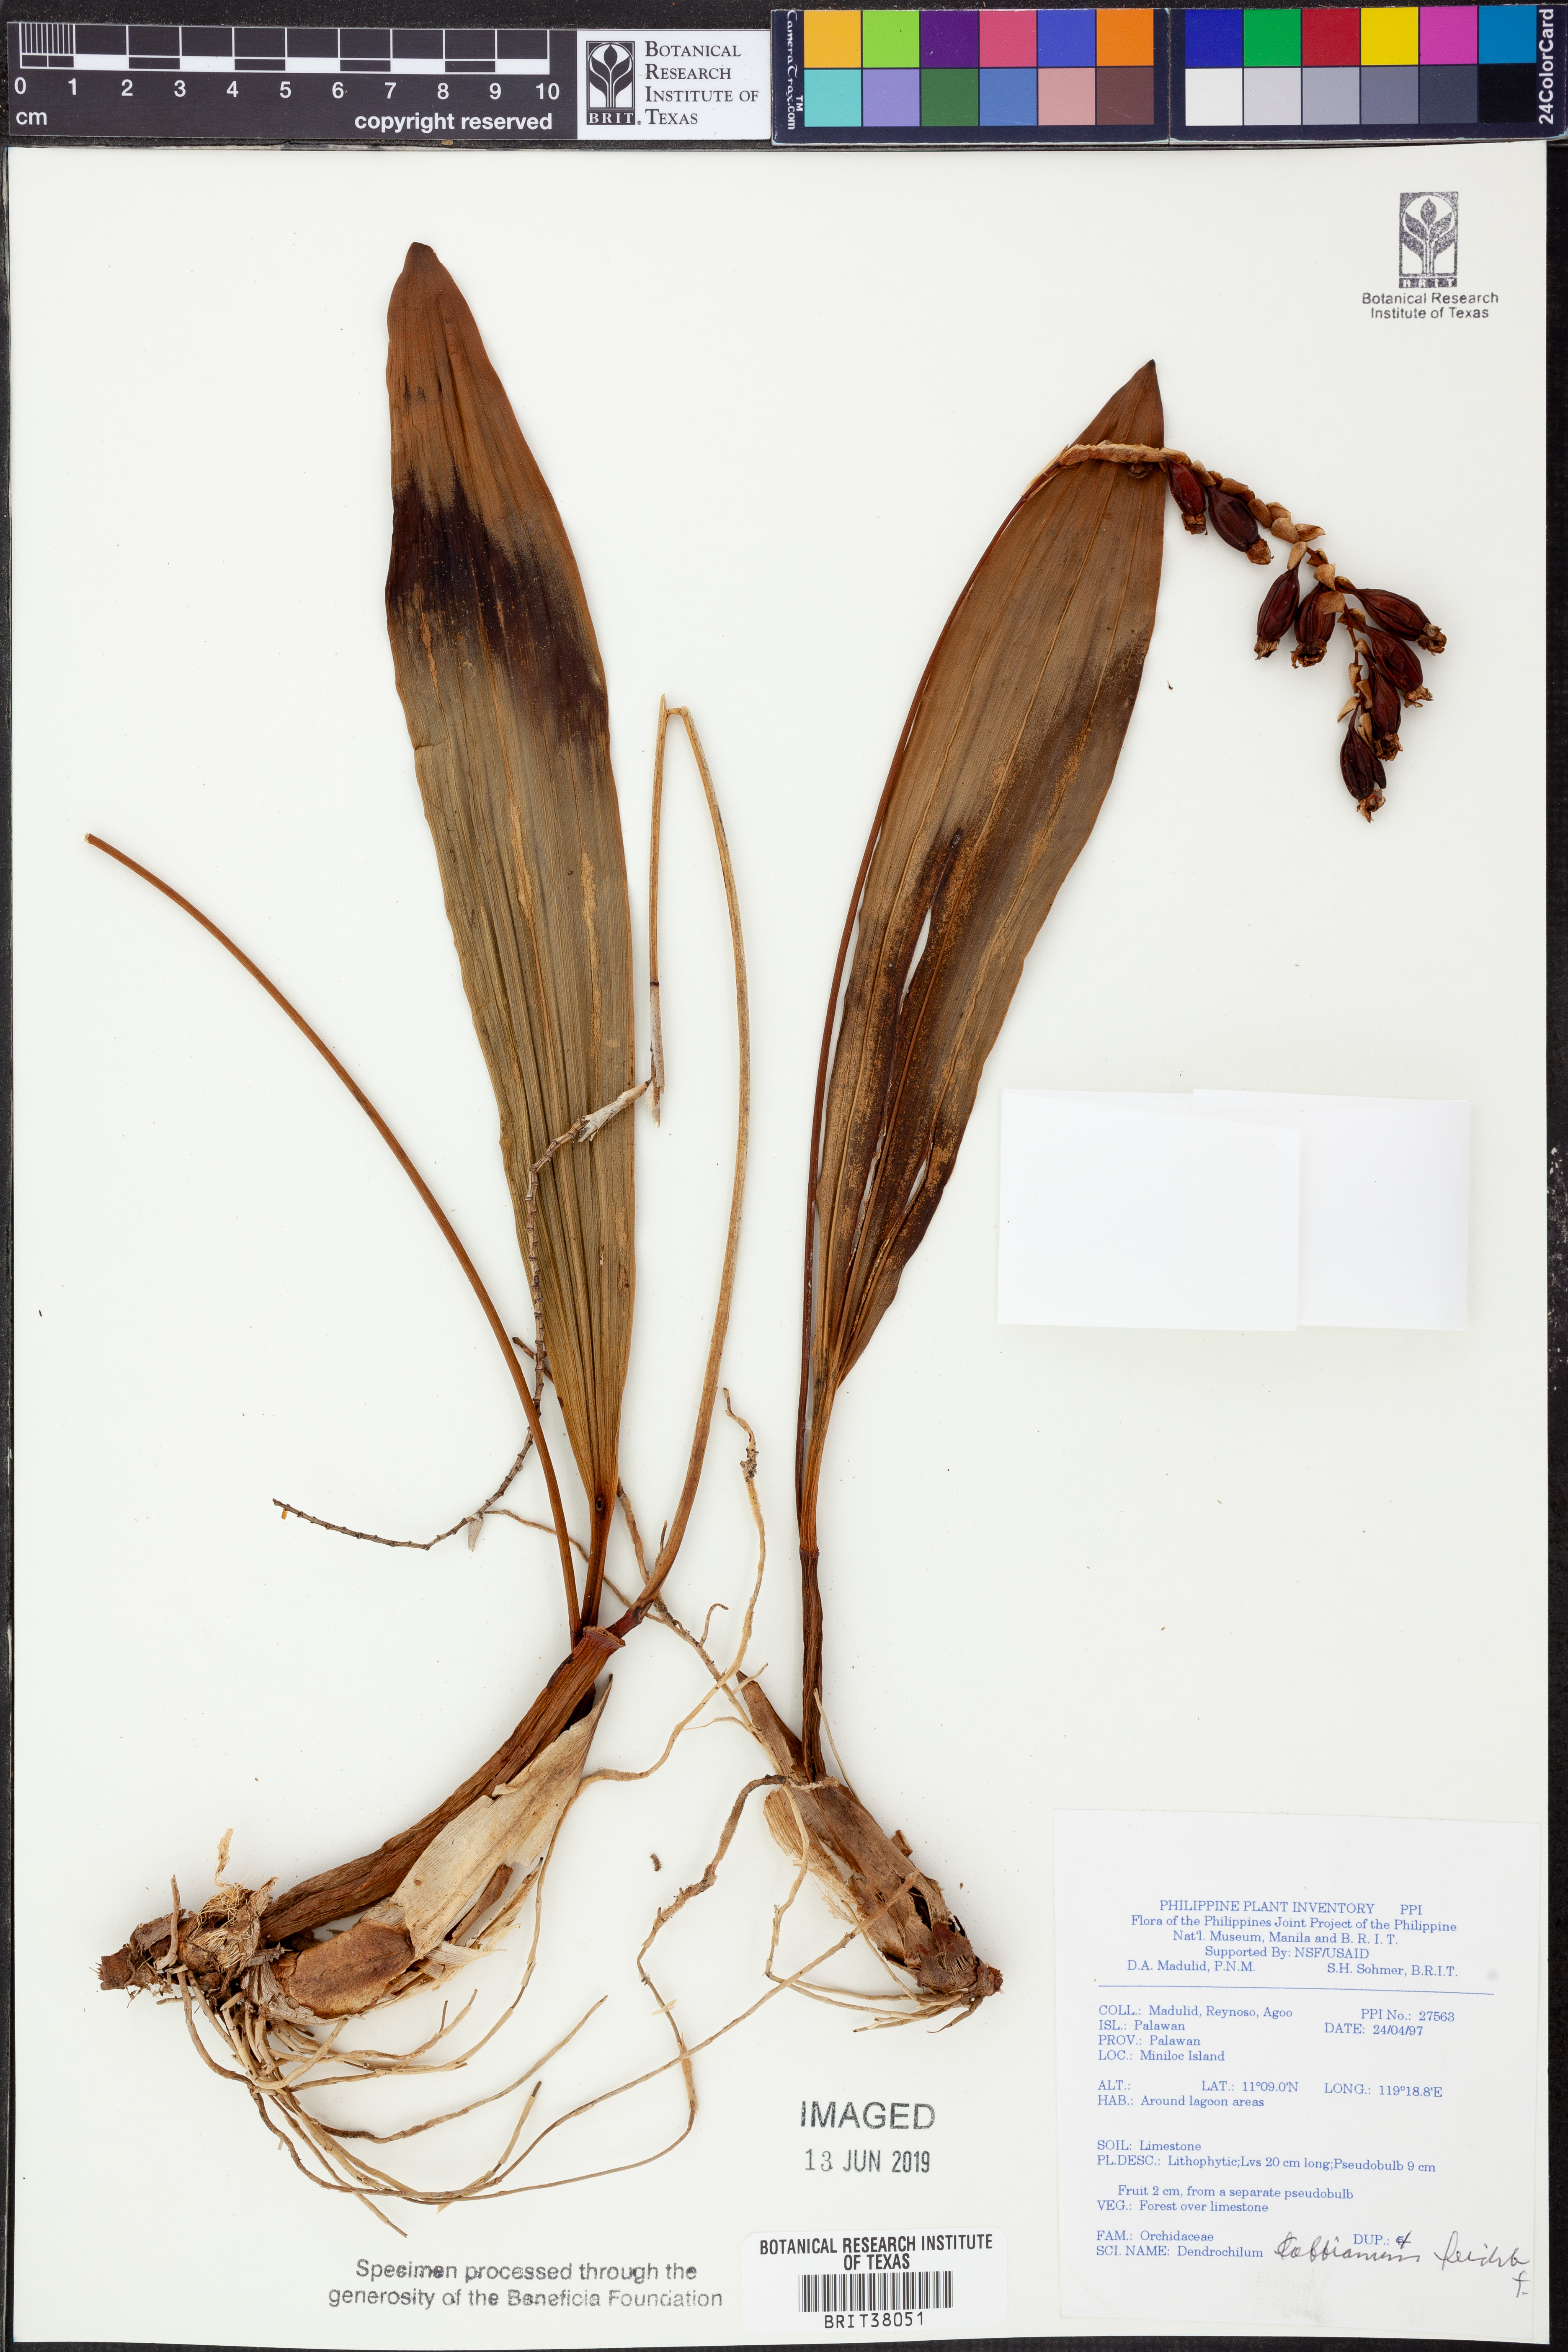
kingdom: Plantae
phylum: Tracheophyta
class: Liliopsida
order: Asparagales
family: Orchidaceae
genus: Coelogyne
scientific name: Coelogyne cobbiana
